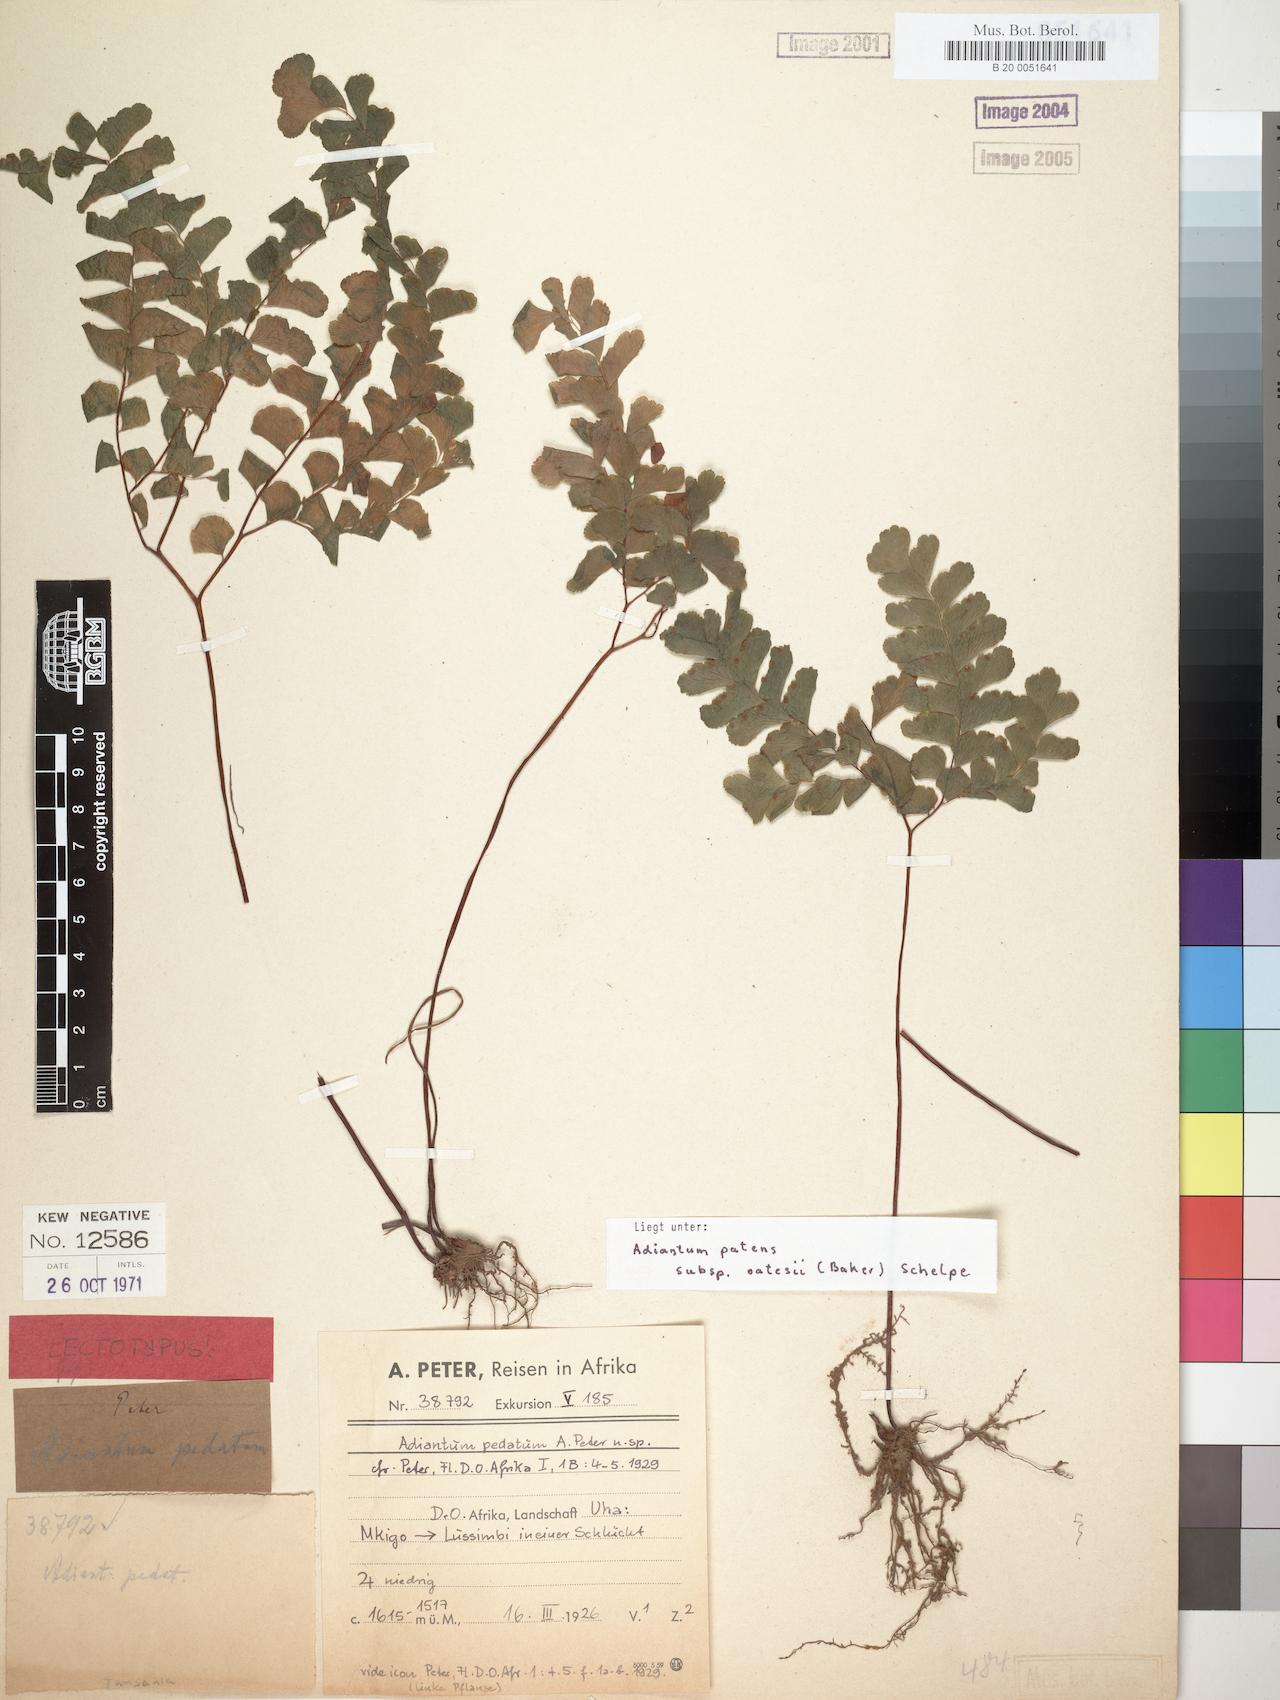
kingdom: Plantae
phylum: Tracheophyta
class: Polypodiopsida
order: Polypodiales
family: Pteridaceae
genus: Adiantum
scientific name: Adiantum patens
